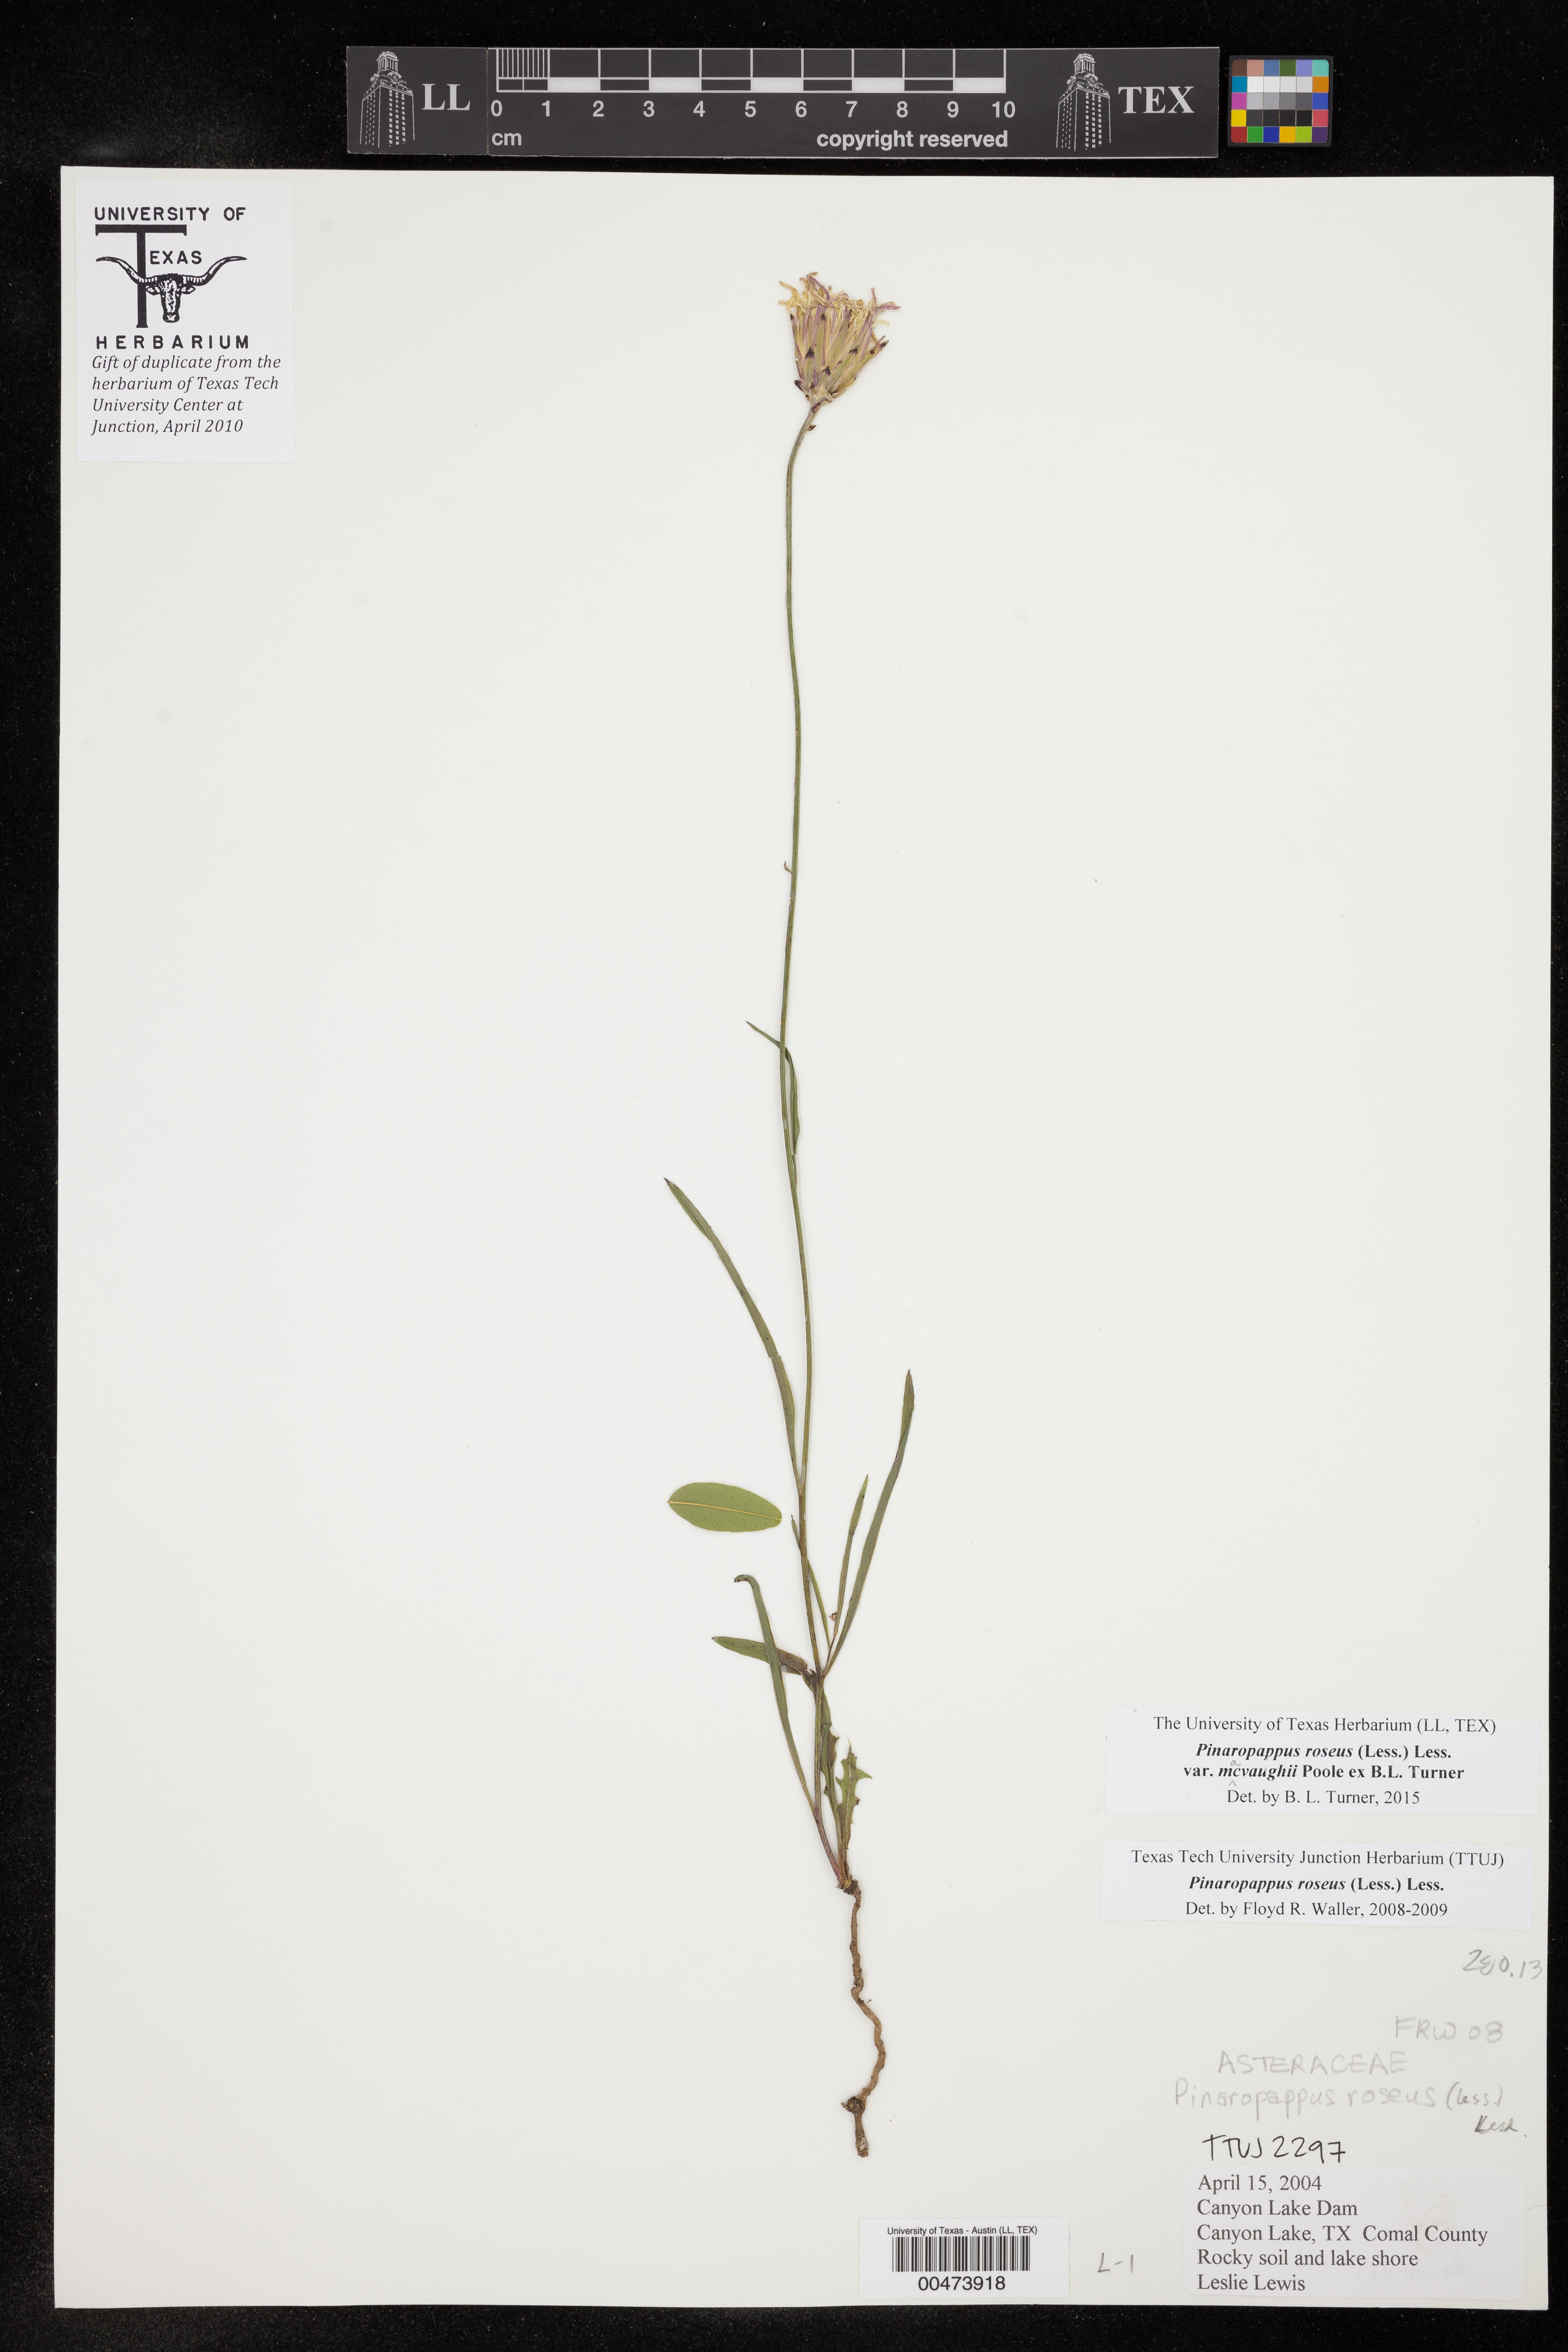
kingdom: Plantae
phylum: Tracheophyta
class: Magnoliopsida
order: Asterales
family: Asteraceae
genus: Pinaropappus
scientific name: Pinaropappus roseus
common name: Rock-lettuce
